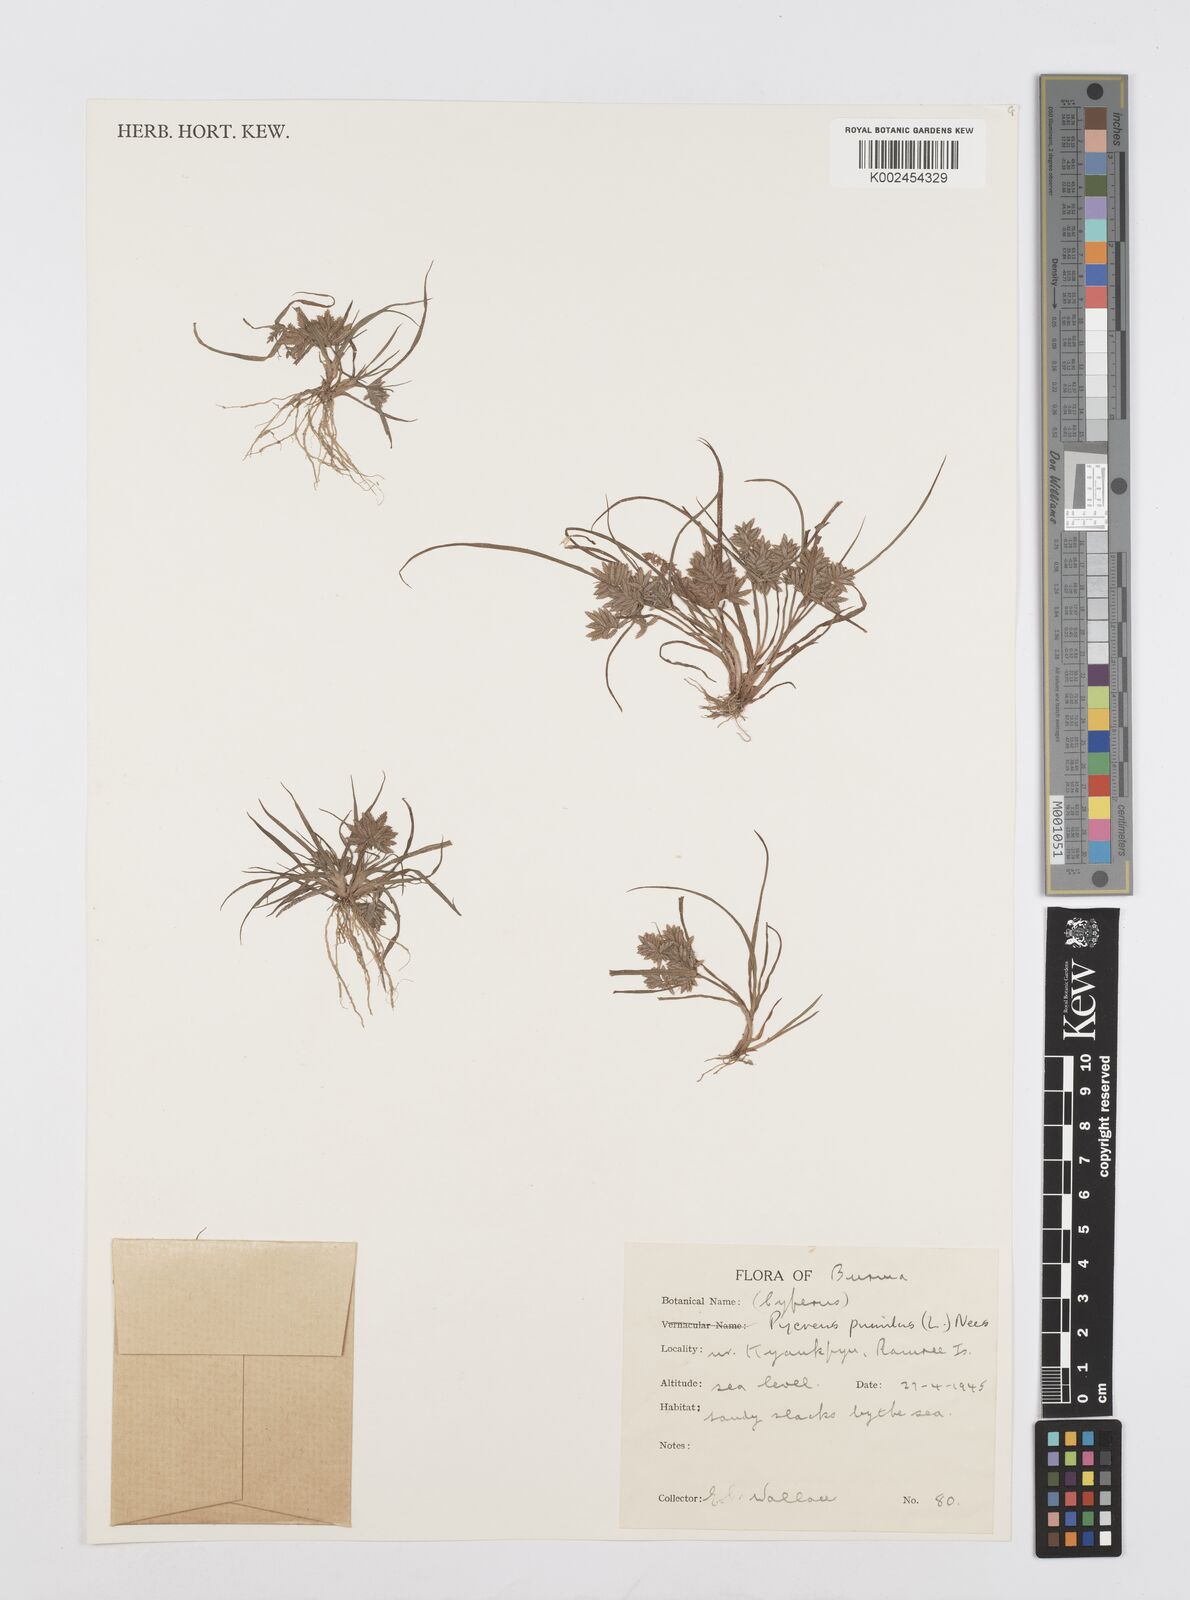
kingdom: Plantae
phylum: Tracheophyta
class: Liliopsida
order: Poales
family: Cyperaceae
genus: Cyperus
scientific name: Cyperus pumilus
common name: Low flatsedge
